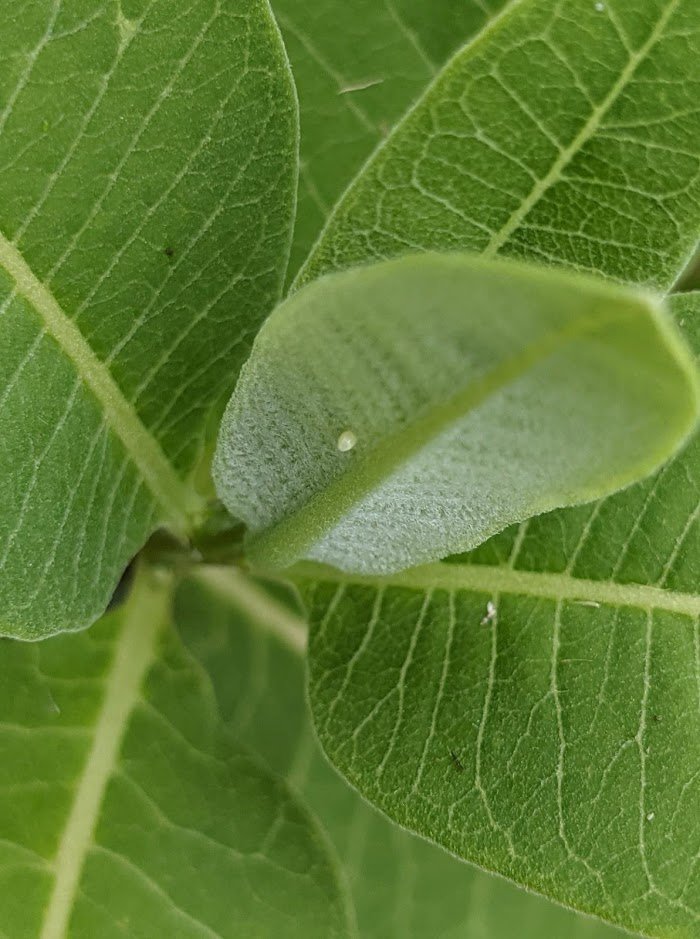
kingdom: Animalia
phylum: Arthropoda
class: Insecta
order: Lepidoptera
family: Nymphalidae
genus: Danaus
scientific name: Danaus plexippus
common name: Monarch
